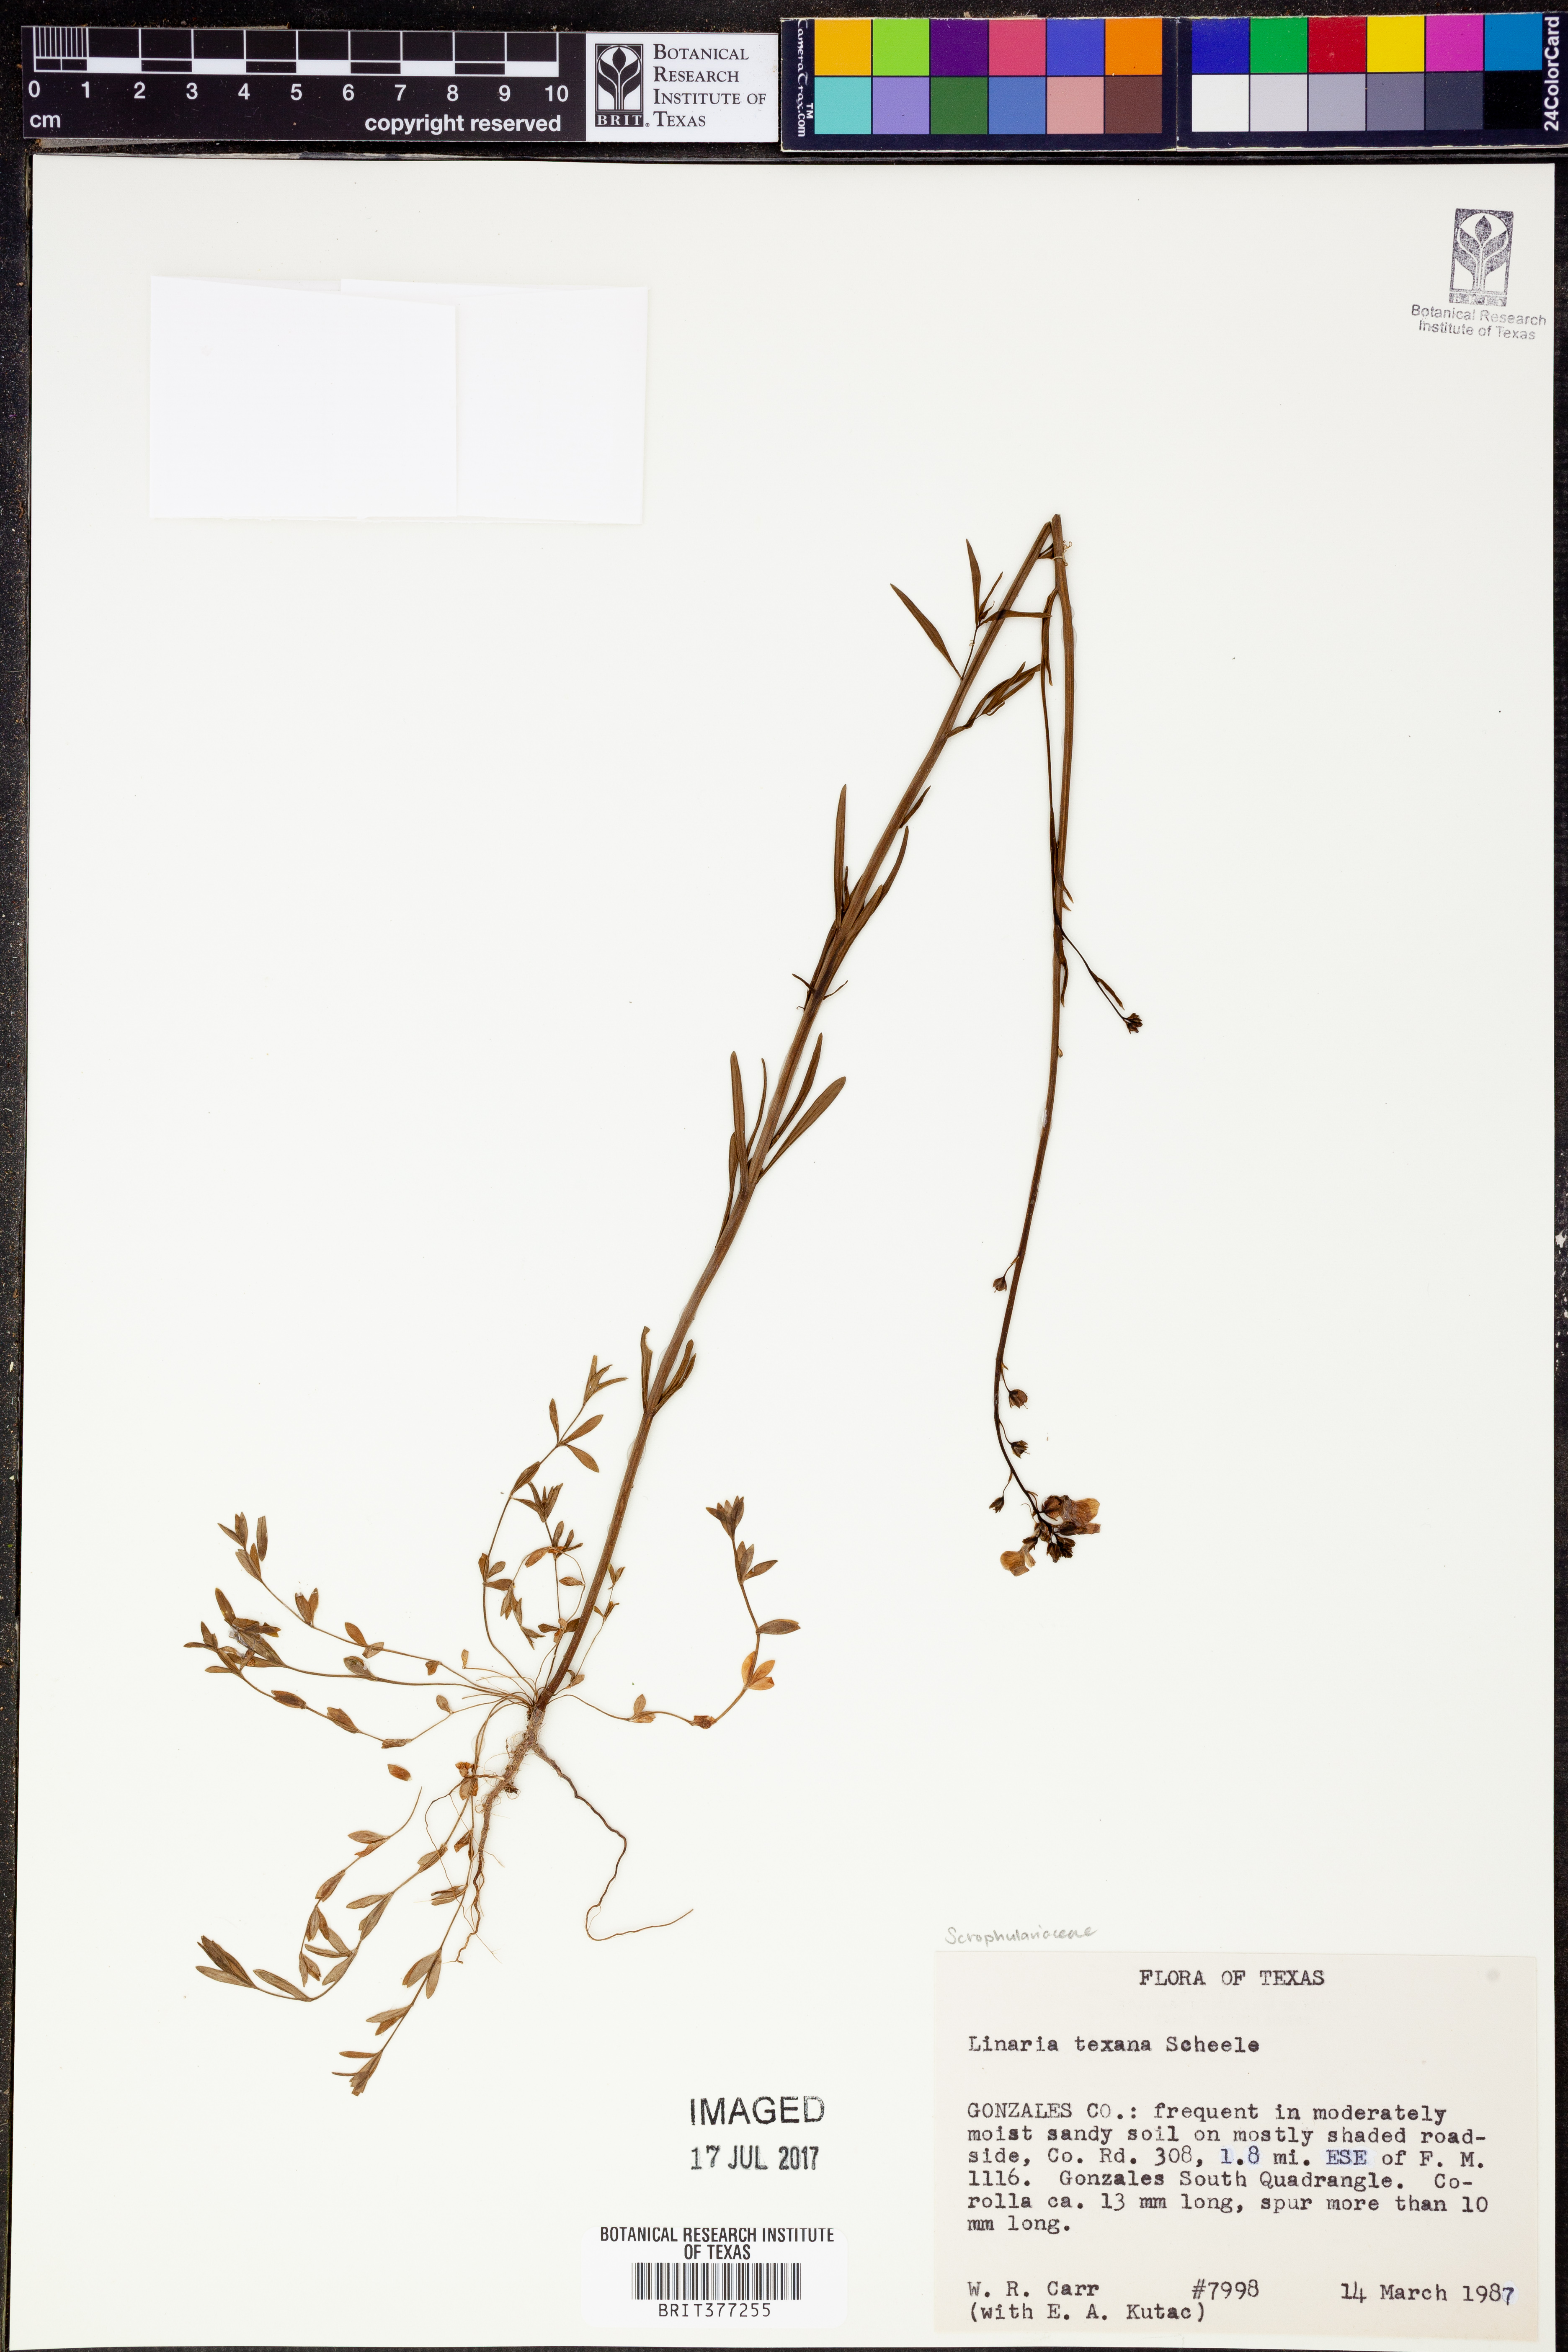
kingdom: Plantae
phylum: Tracheophyta
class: Magnoliopsida
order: Lamiales
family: Plantaginaceae
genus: Nuttallanthus
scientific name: Nuttallanthus texanus
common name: Texas toadflax
